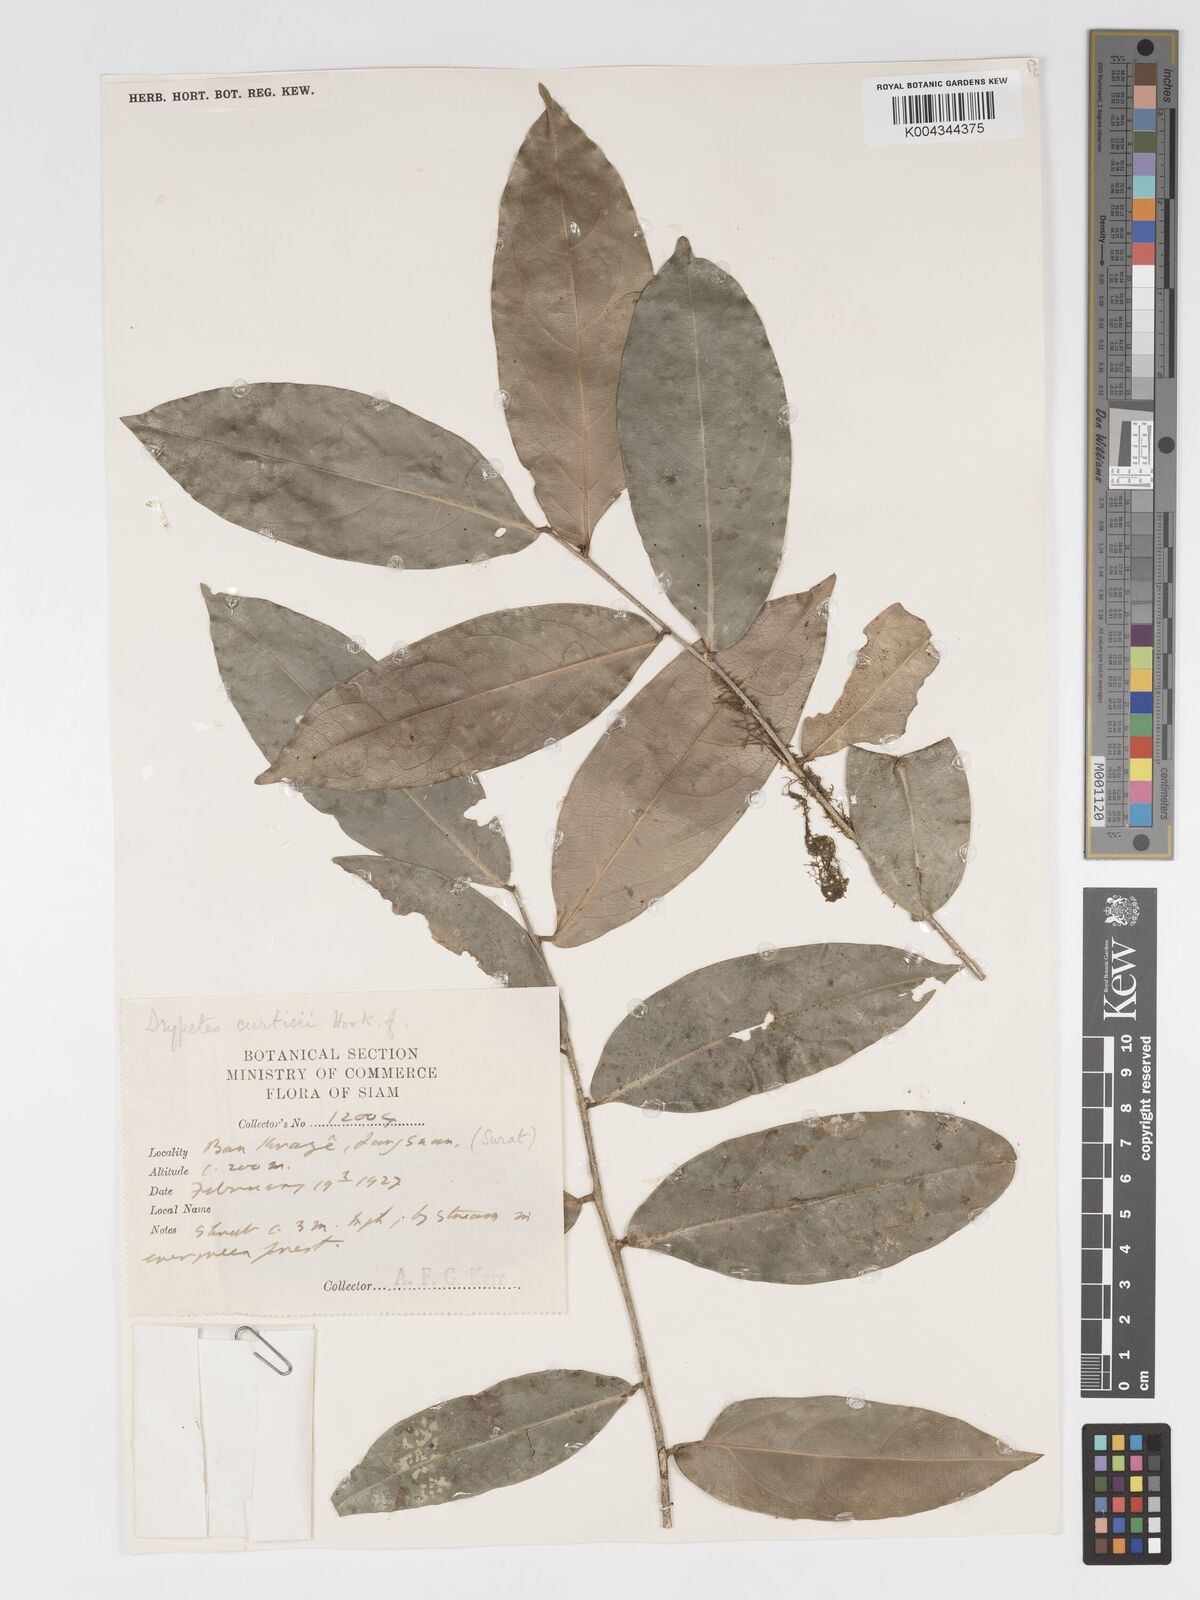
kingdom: Plantae
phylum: Tracheophyta
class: Magnoliopsida
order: Malpighiales
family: Putranjivaceae
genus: Drypetes
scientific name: Drypetes curtisii
